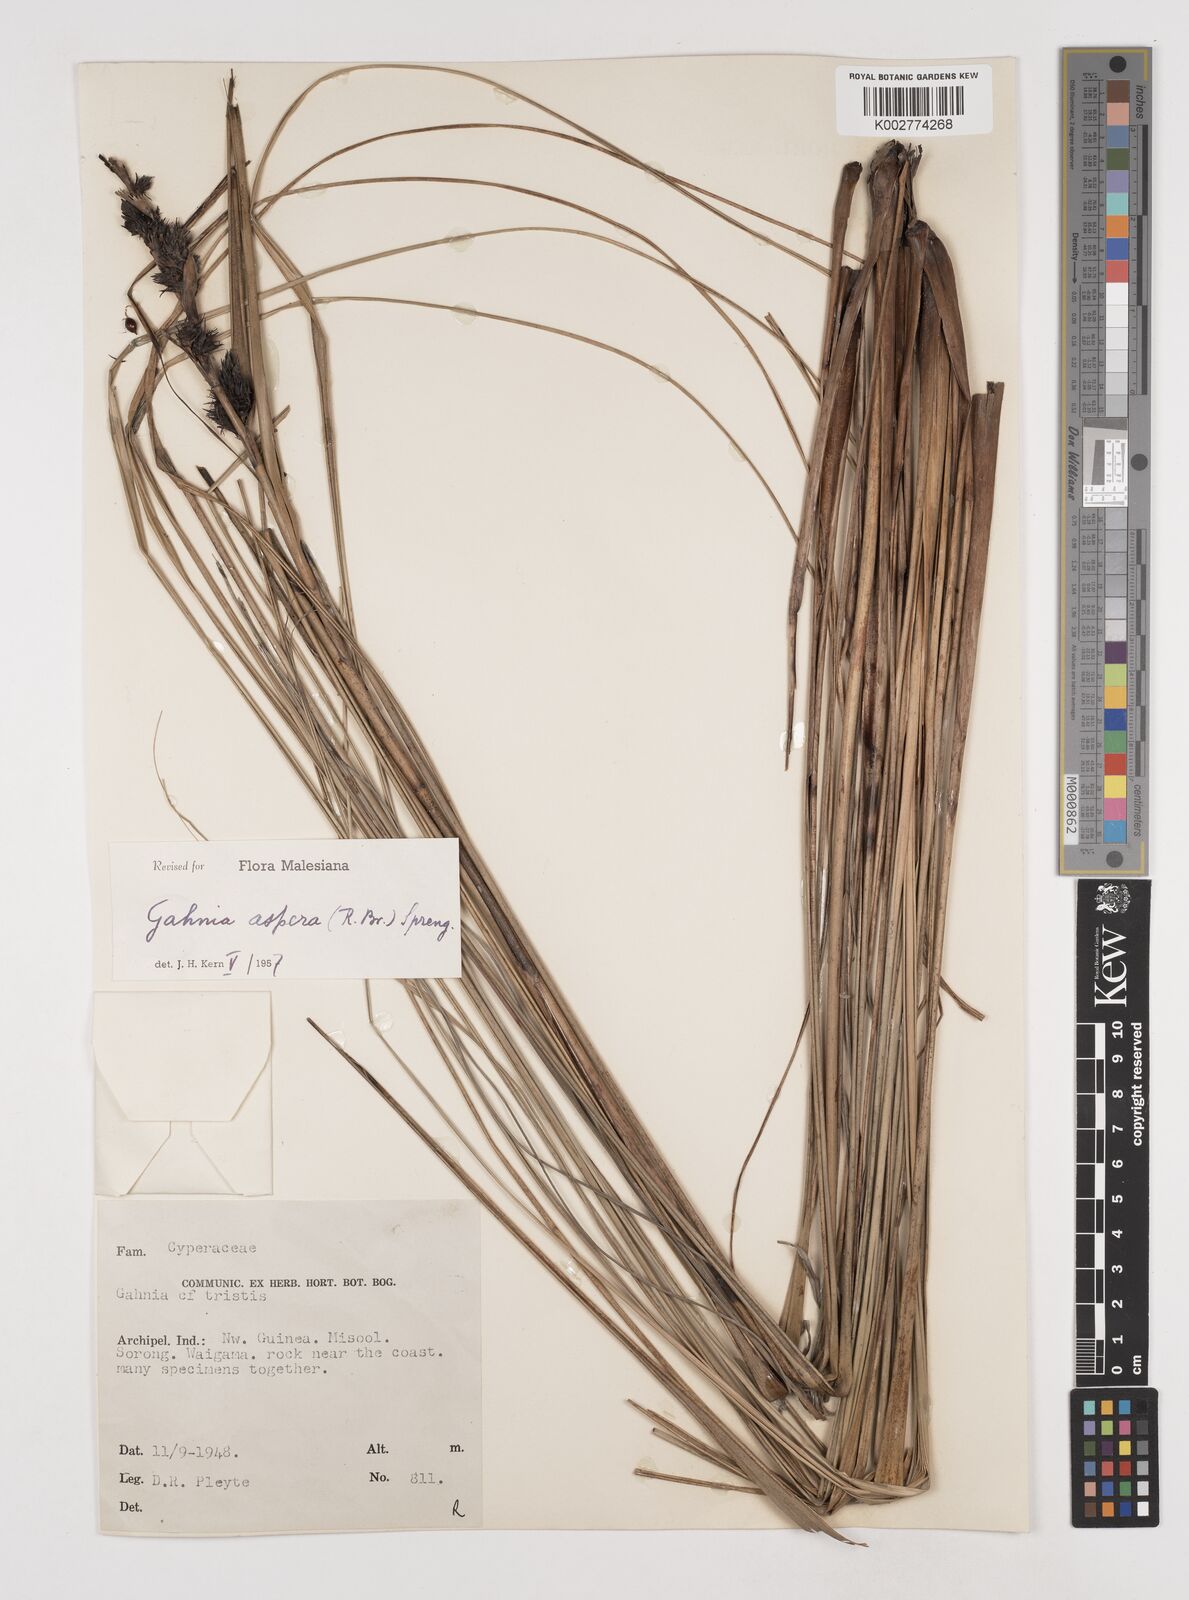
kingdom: Plantae
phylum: Tracheophyta
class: Liliopsida
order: Poales
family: Cyperaceae
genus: Gahnia
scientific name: Gahnia aspera
